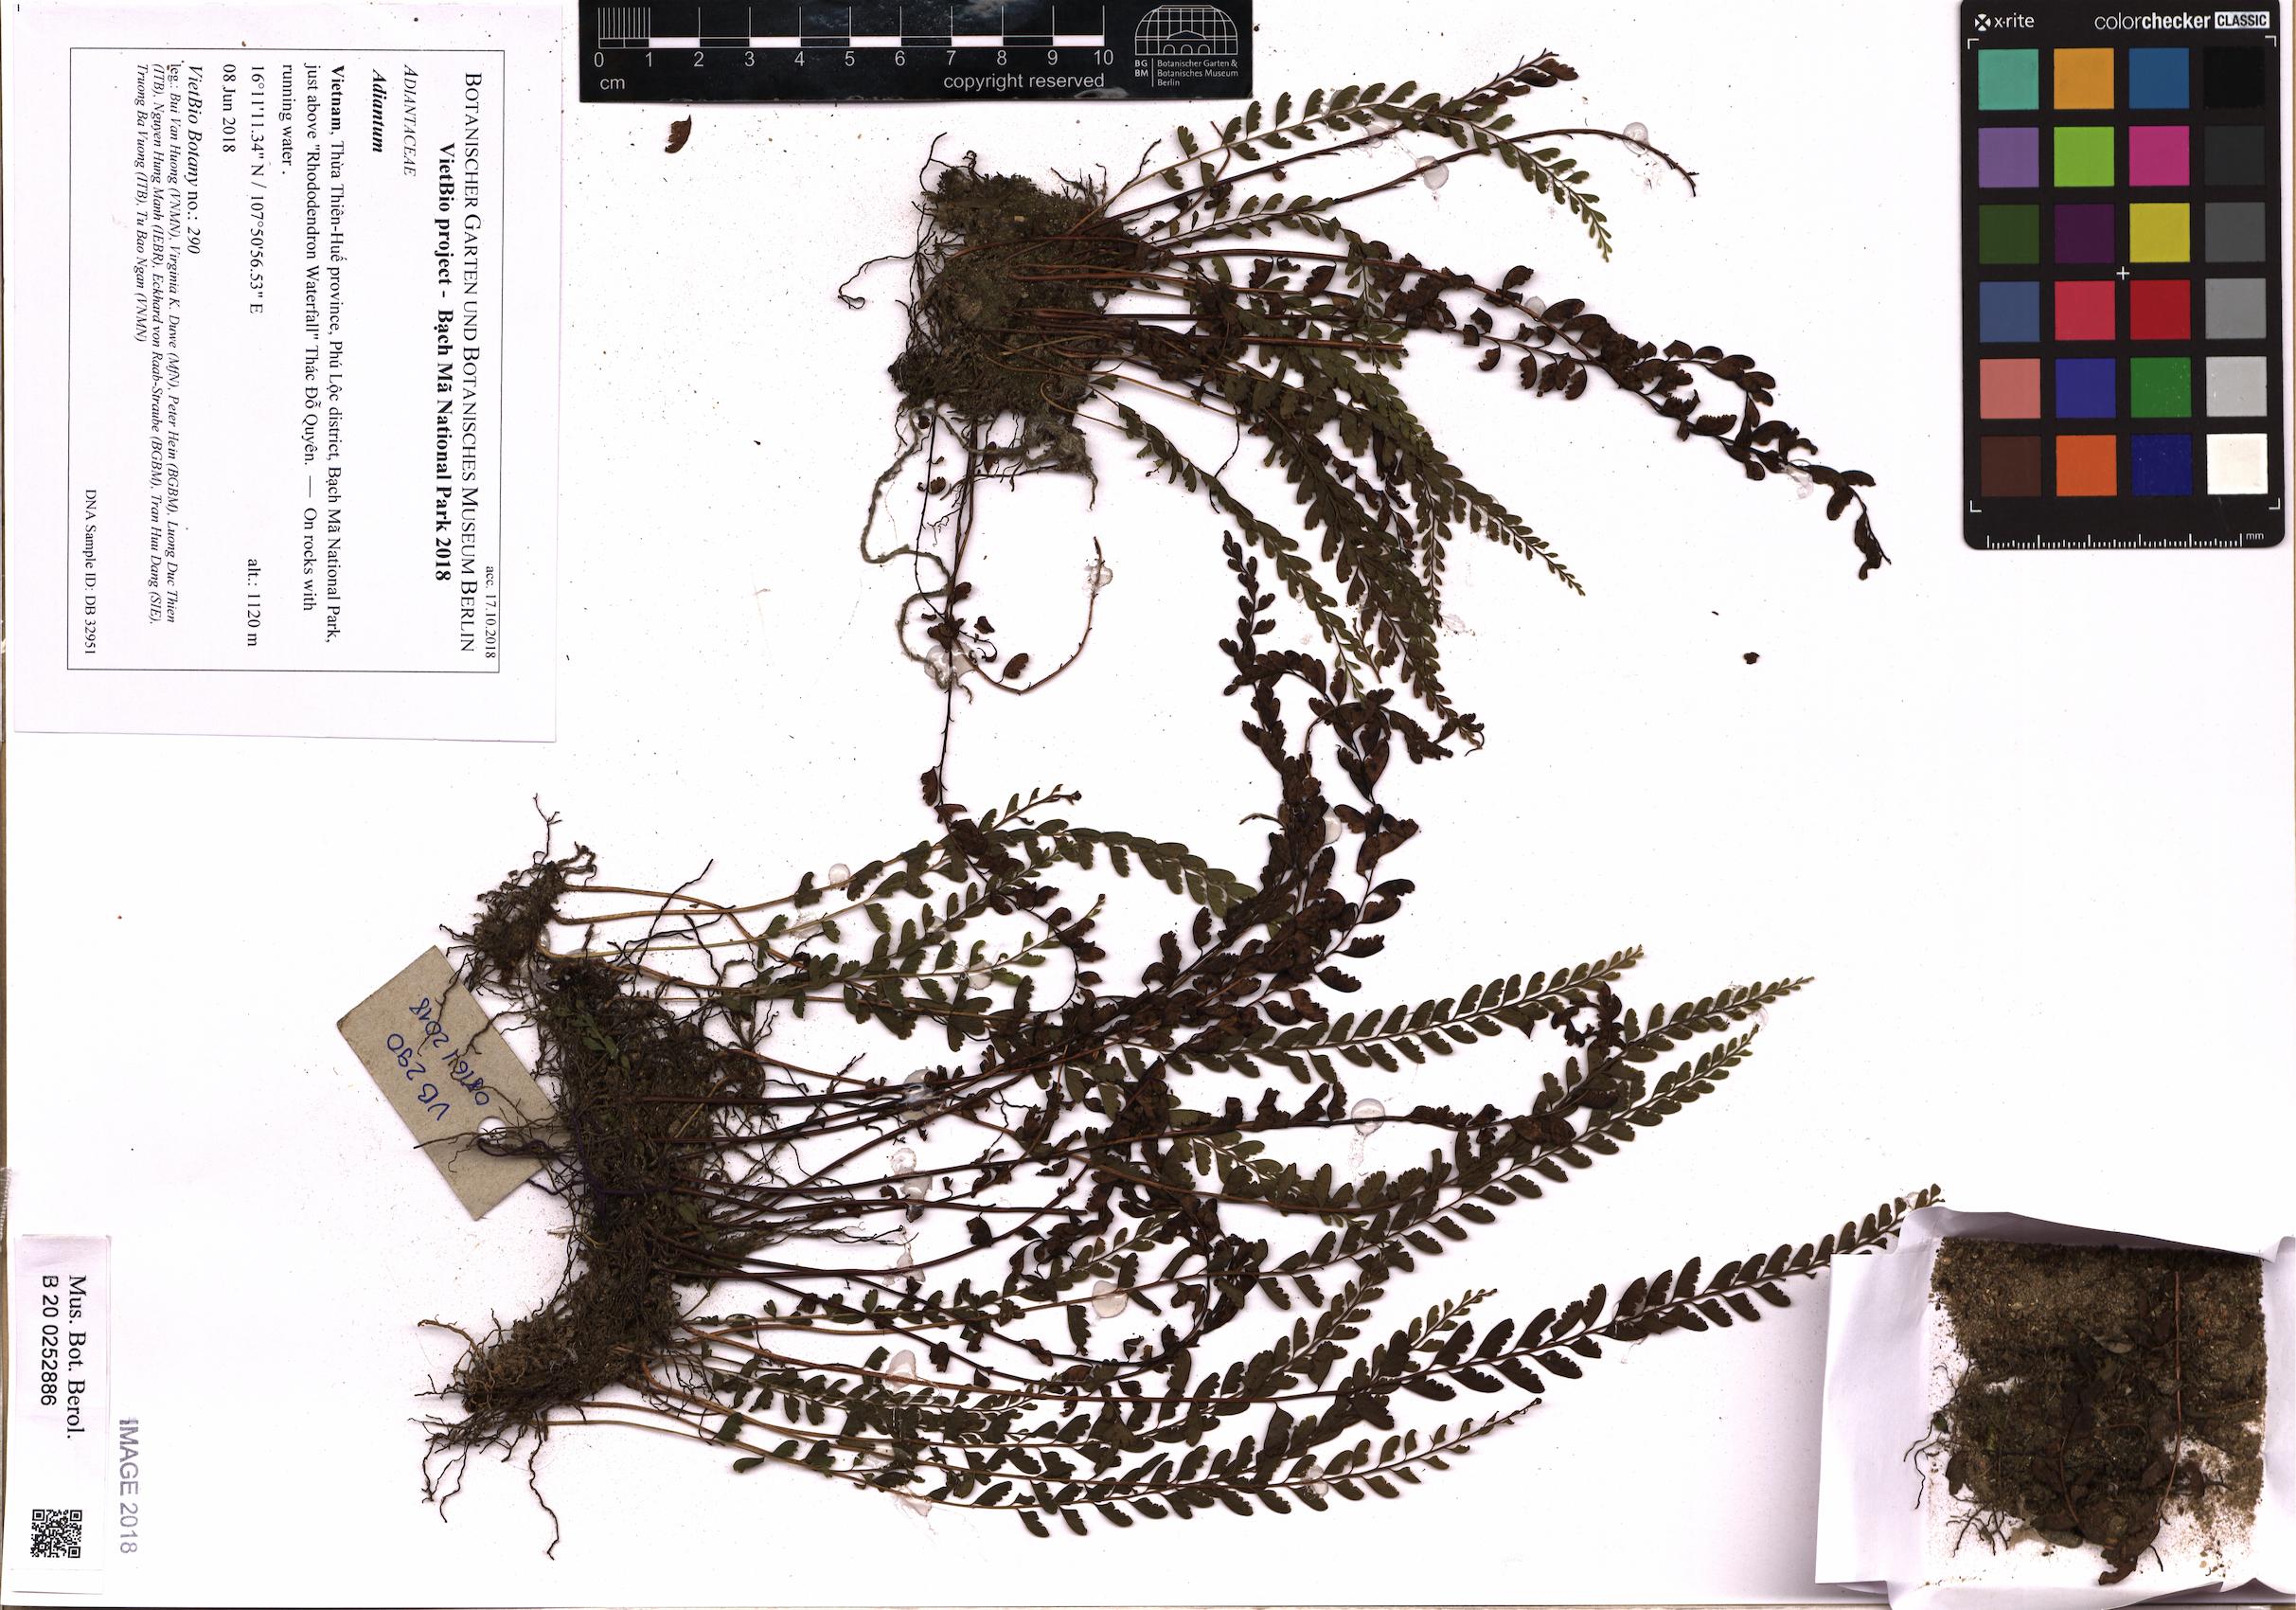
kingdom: Plantae
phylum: Tracheophyta
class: Polypodiopsida
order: Polypodiales
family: Pteridaceae
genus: Adiantum
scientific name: Adiantum
